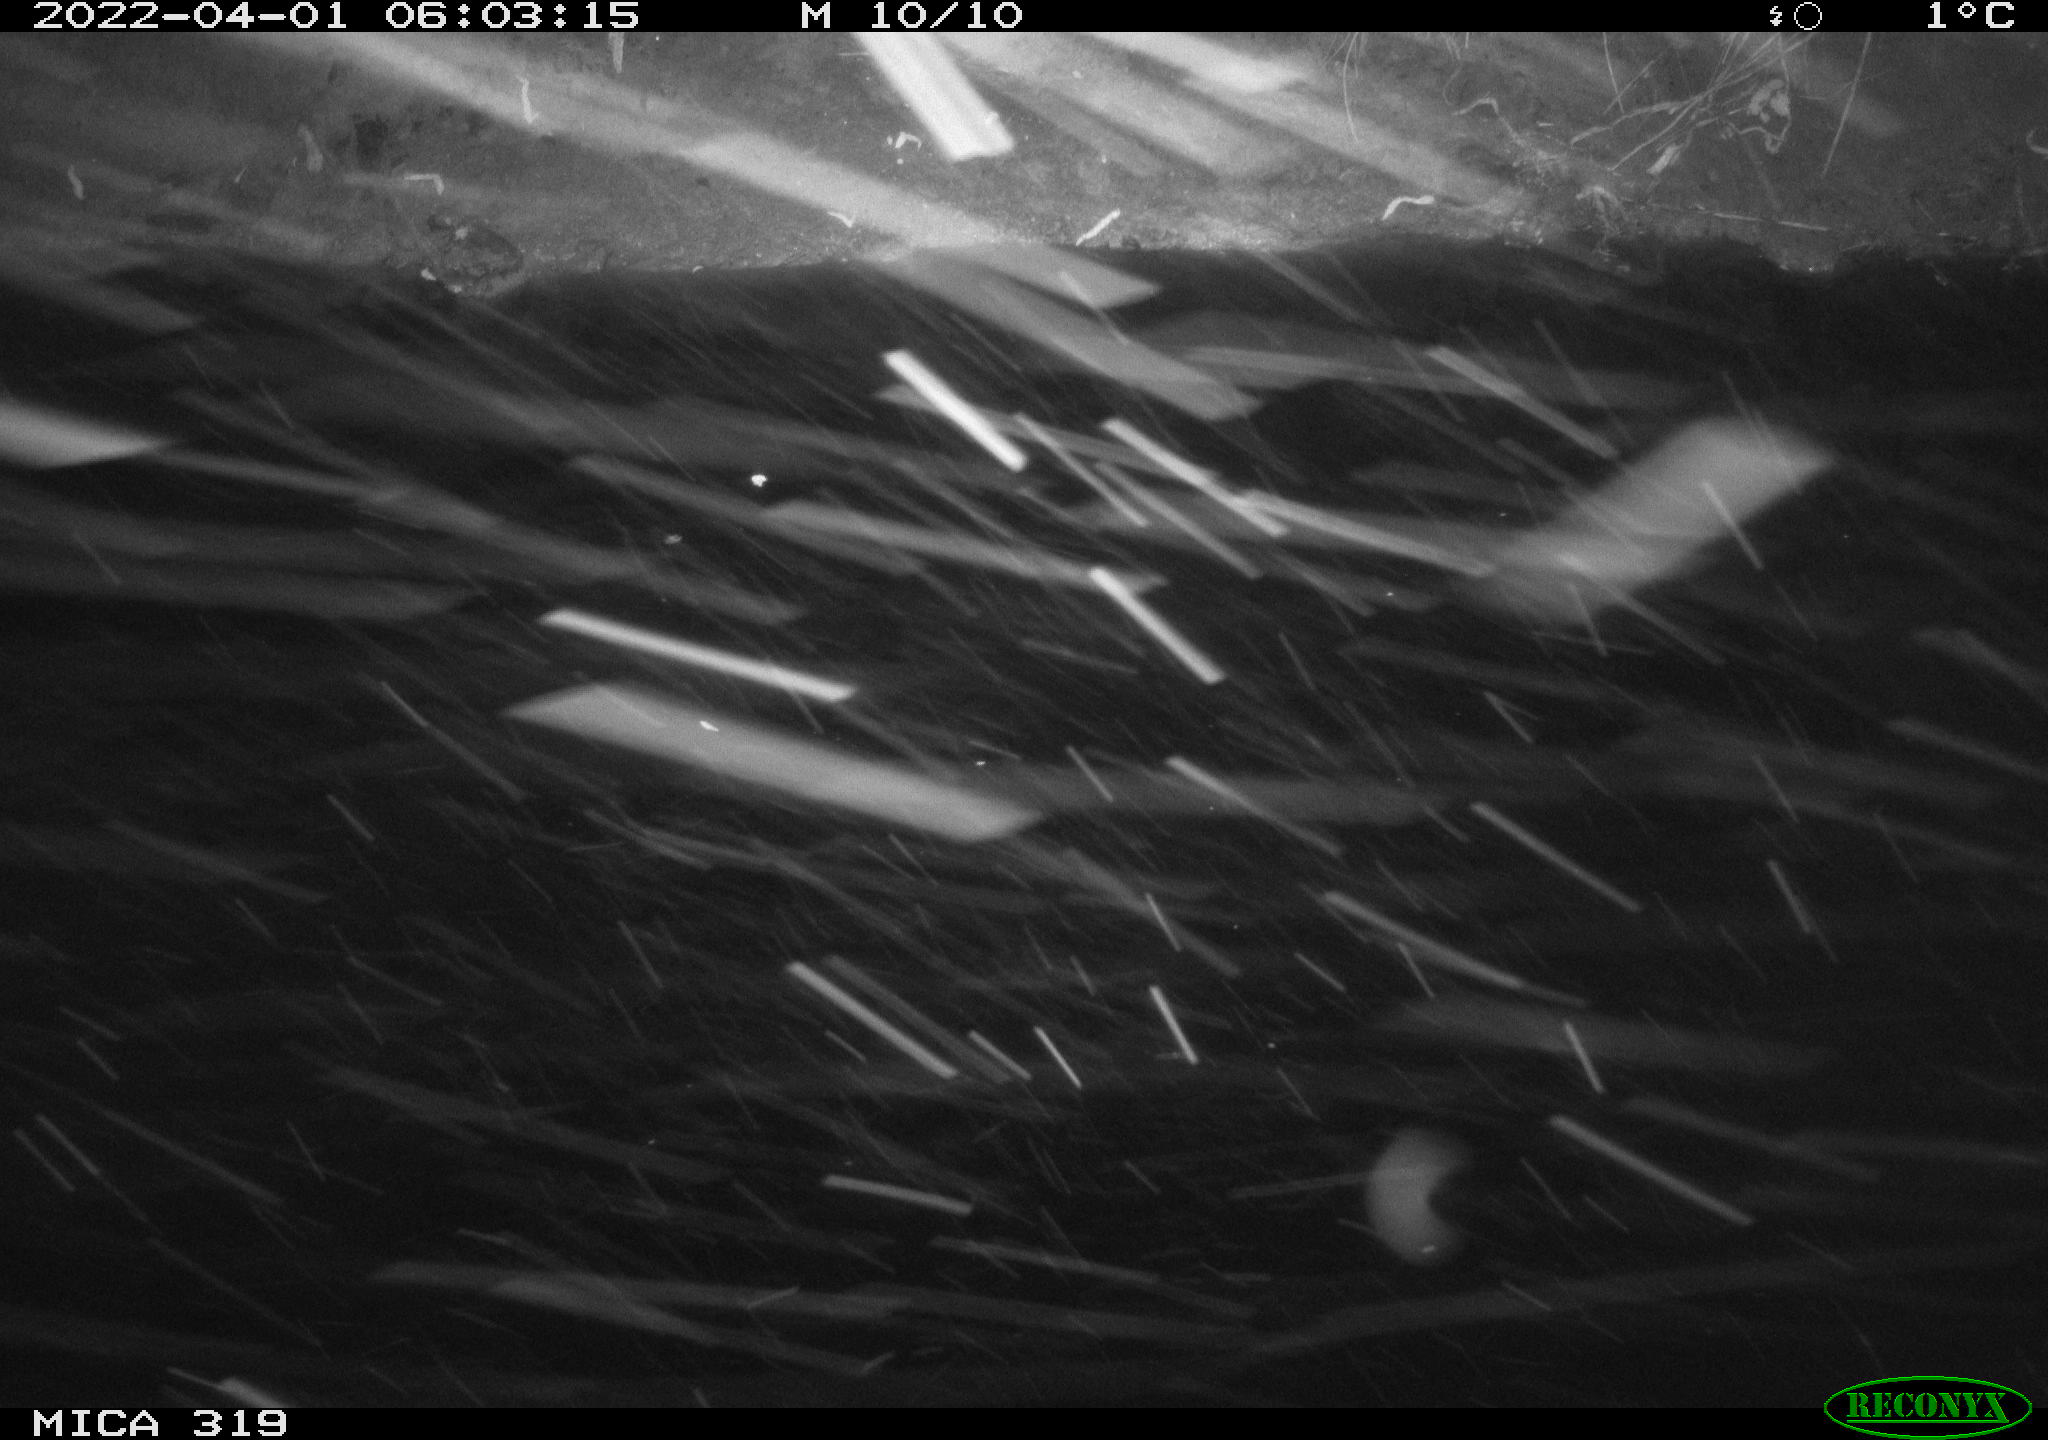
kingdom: Animalia
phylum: Chordata
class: Aves
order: Gruiformes
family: Rallidae
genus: Gallinula
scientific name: Gallinula chloropus
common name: Common moorhen
